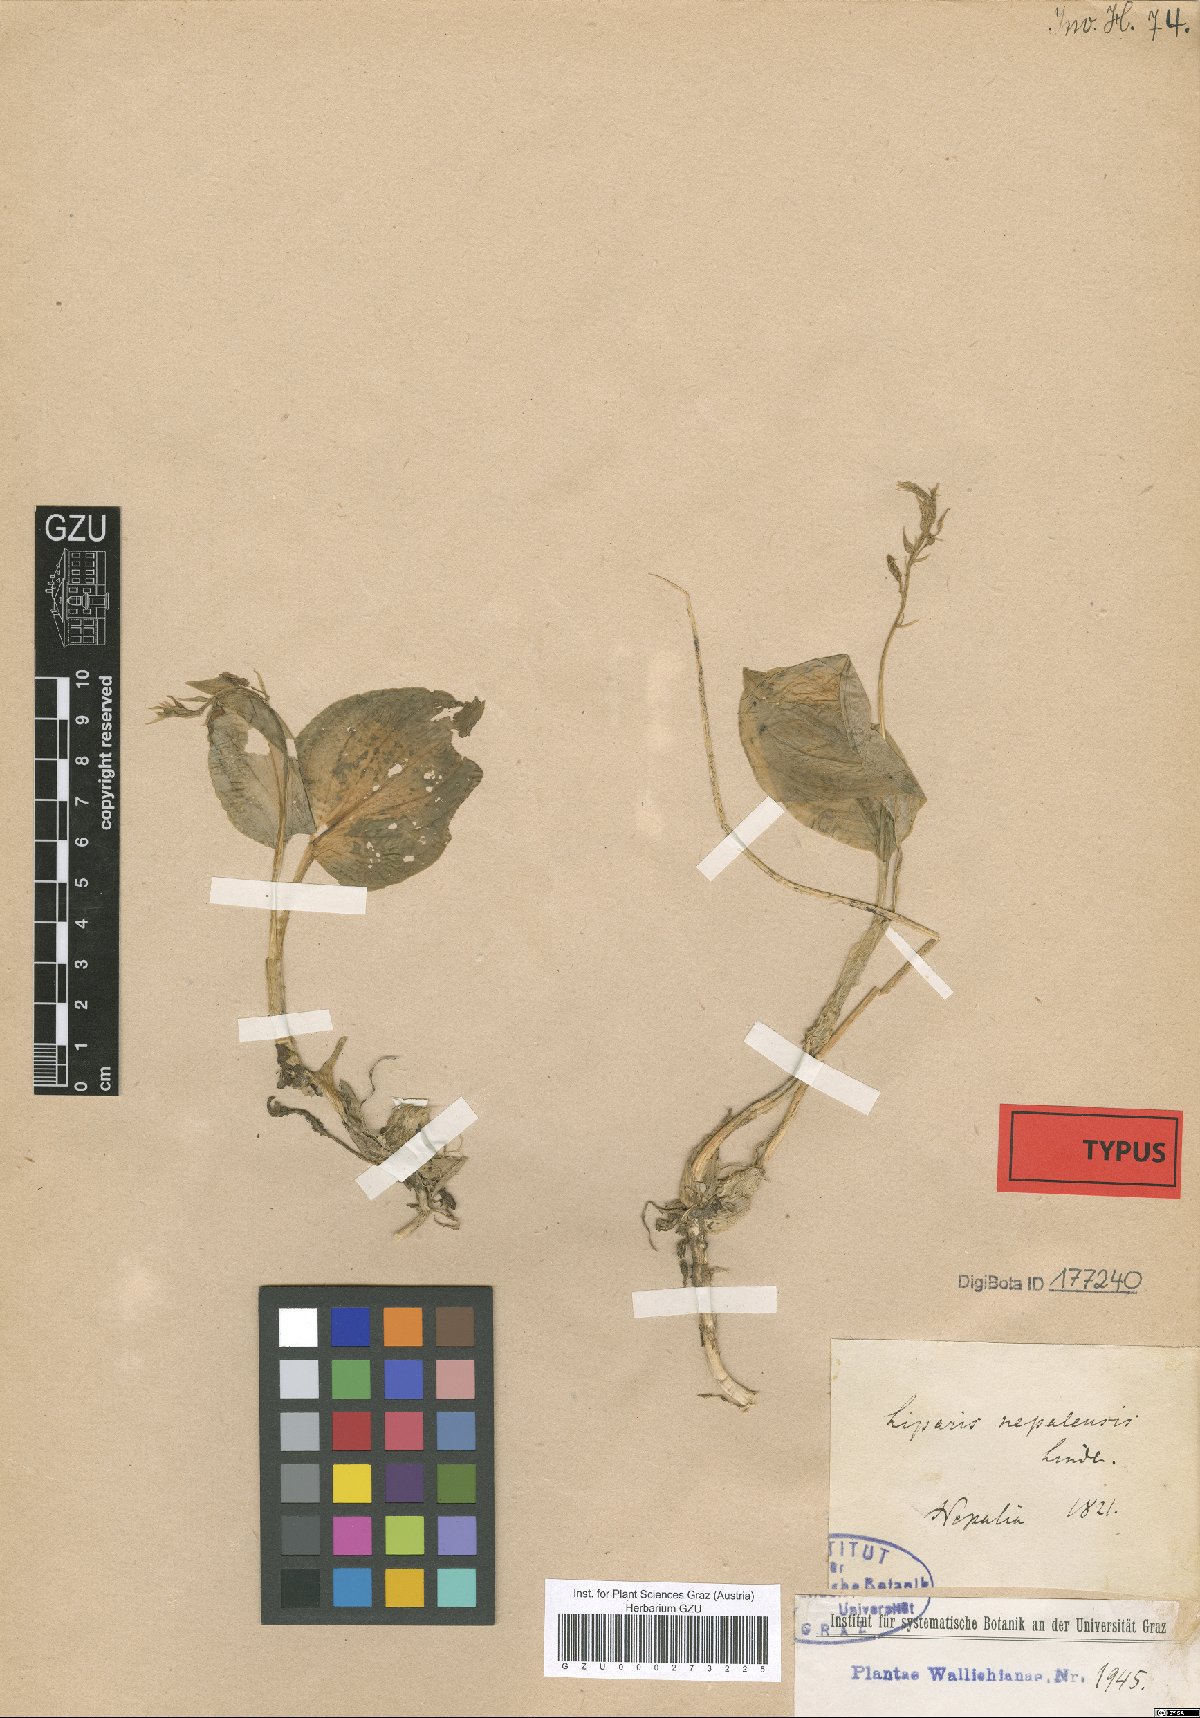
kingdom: Plantae
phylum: Tracheophyta
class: Liliopsida
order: Asparagales
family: Orchidaceae
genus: Liparis
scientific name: Liparis petiolata
